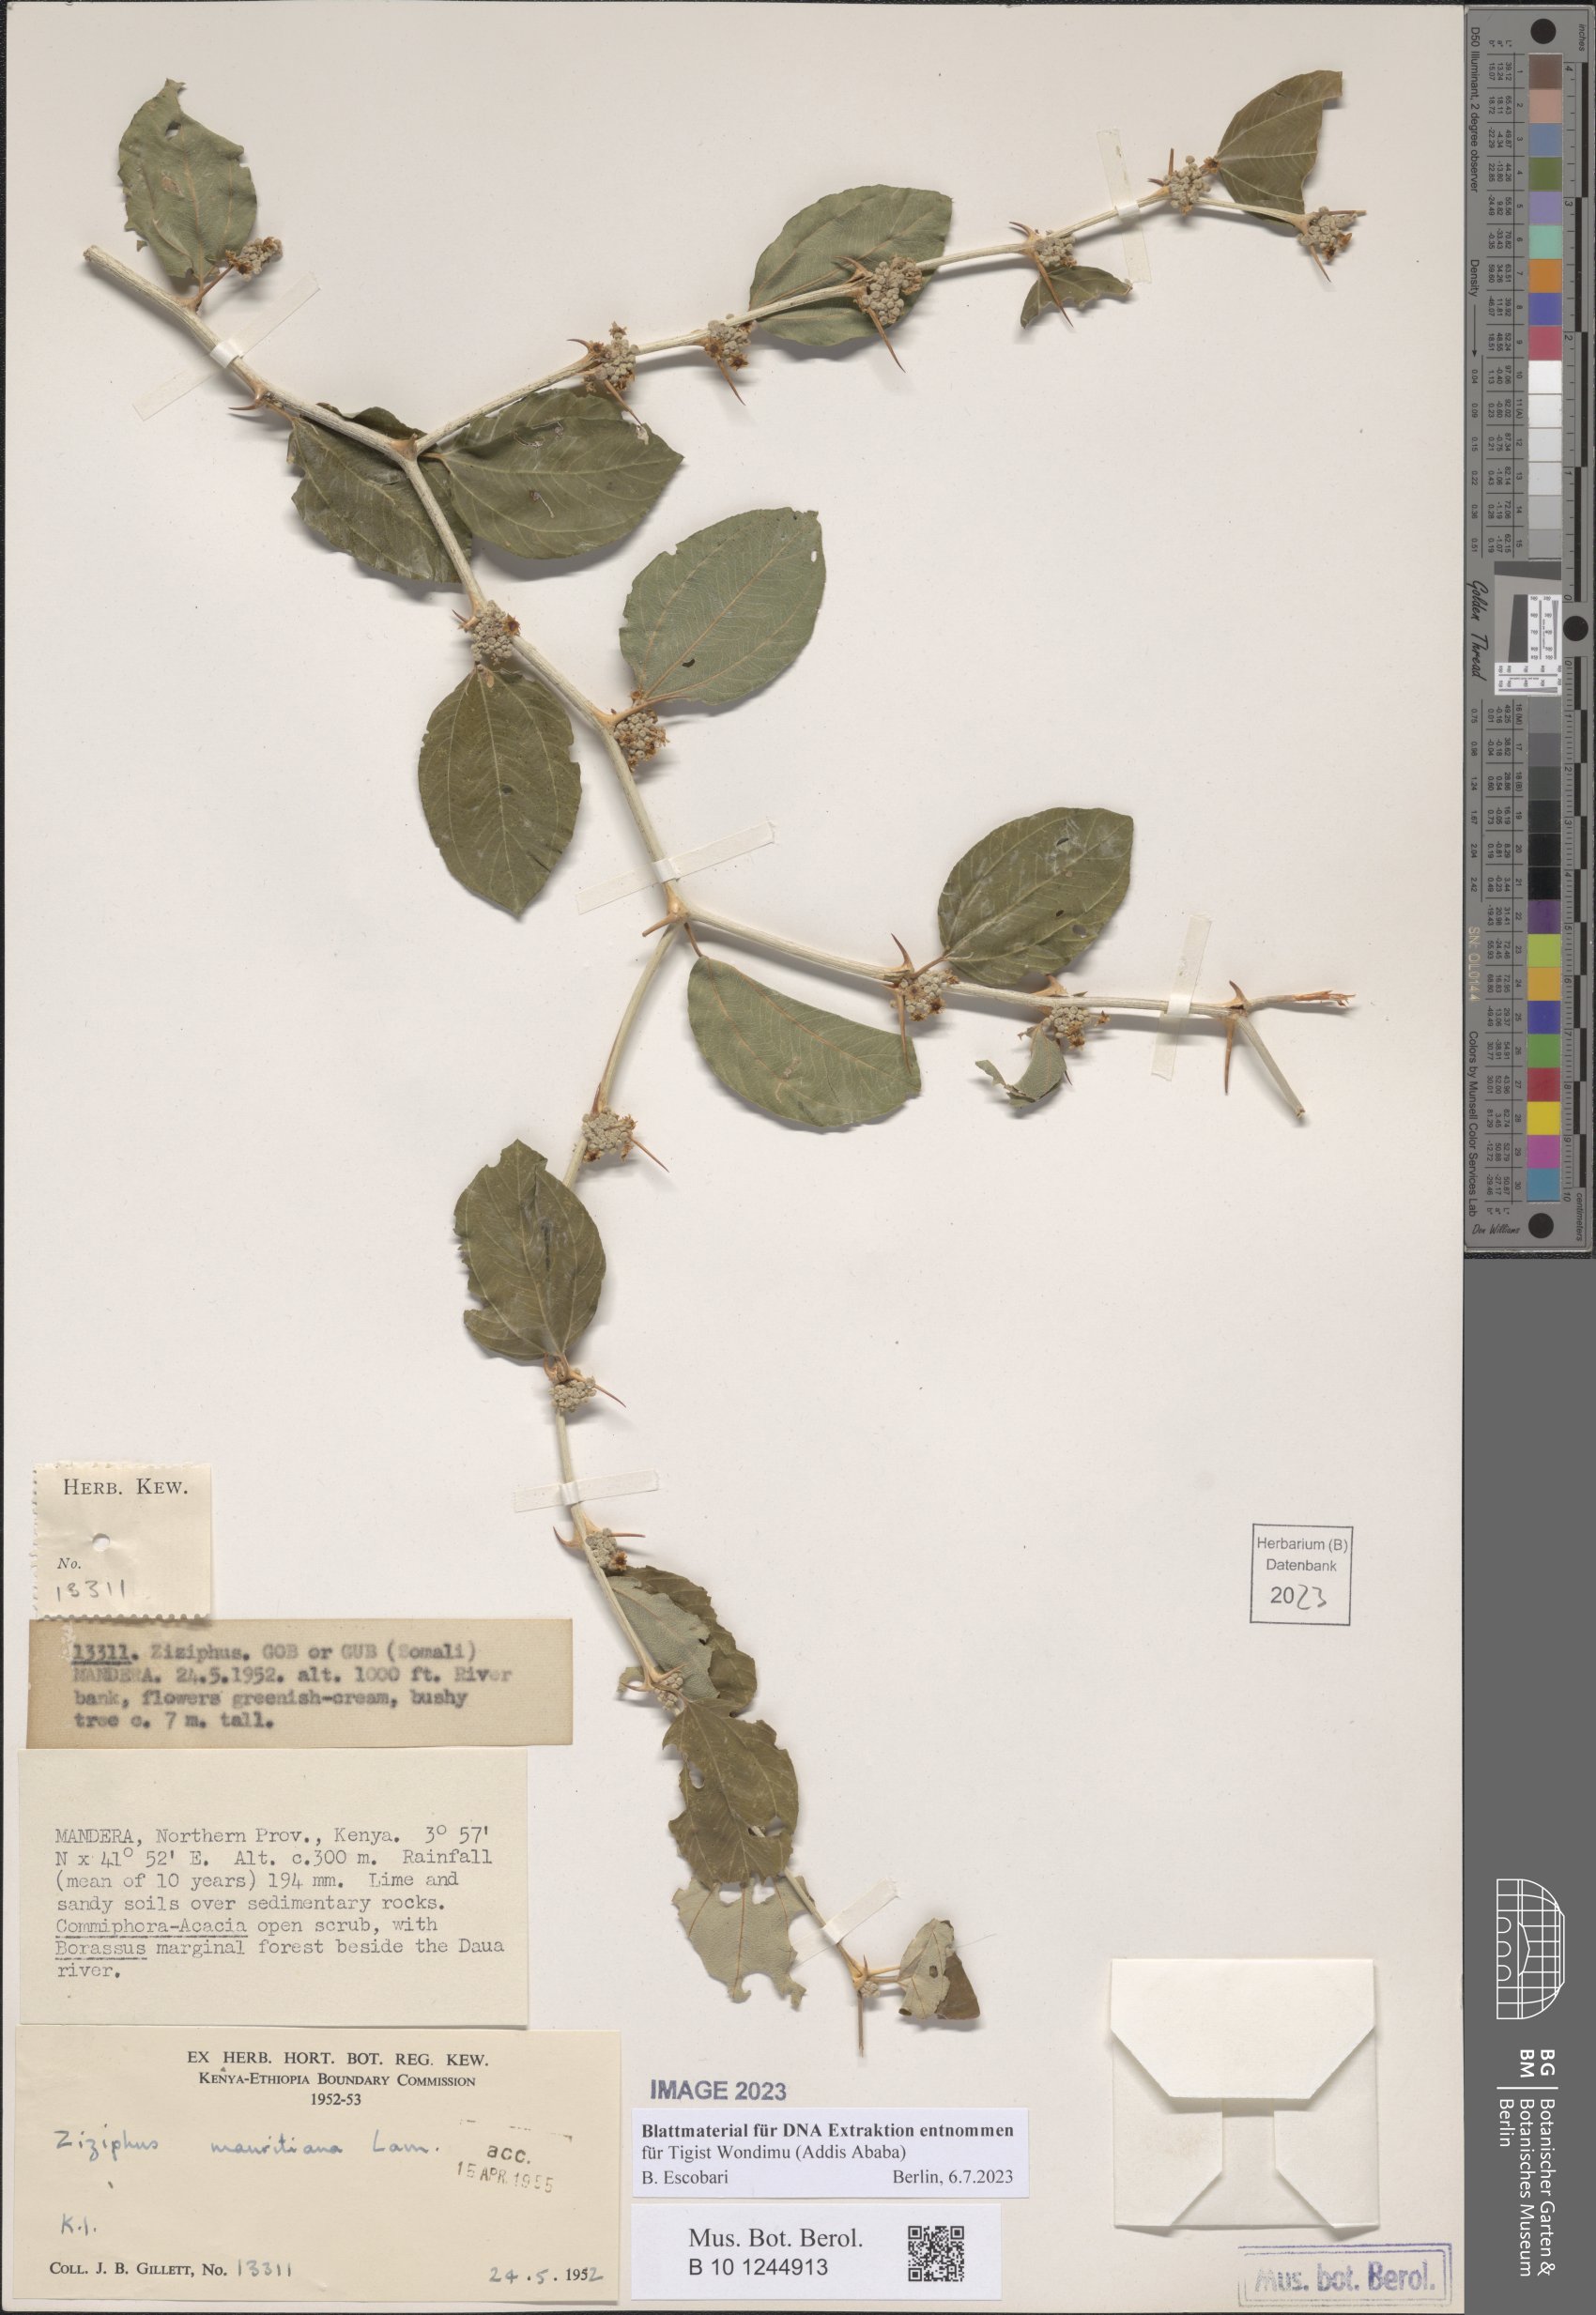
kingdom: Plantae
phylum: Tracheophyta
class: Magnoliopsida
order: Rosales
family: Rhamnaceae
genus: Ziziphus
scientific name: Ziziphus mauritiana
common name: Indian jujube
